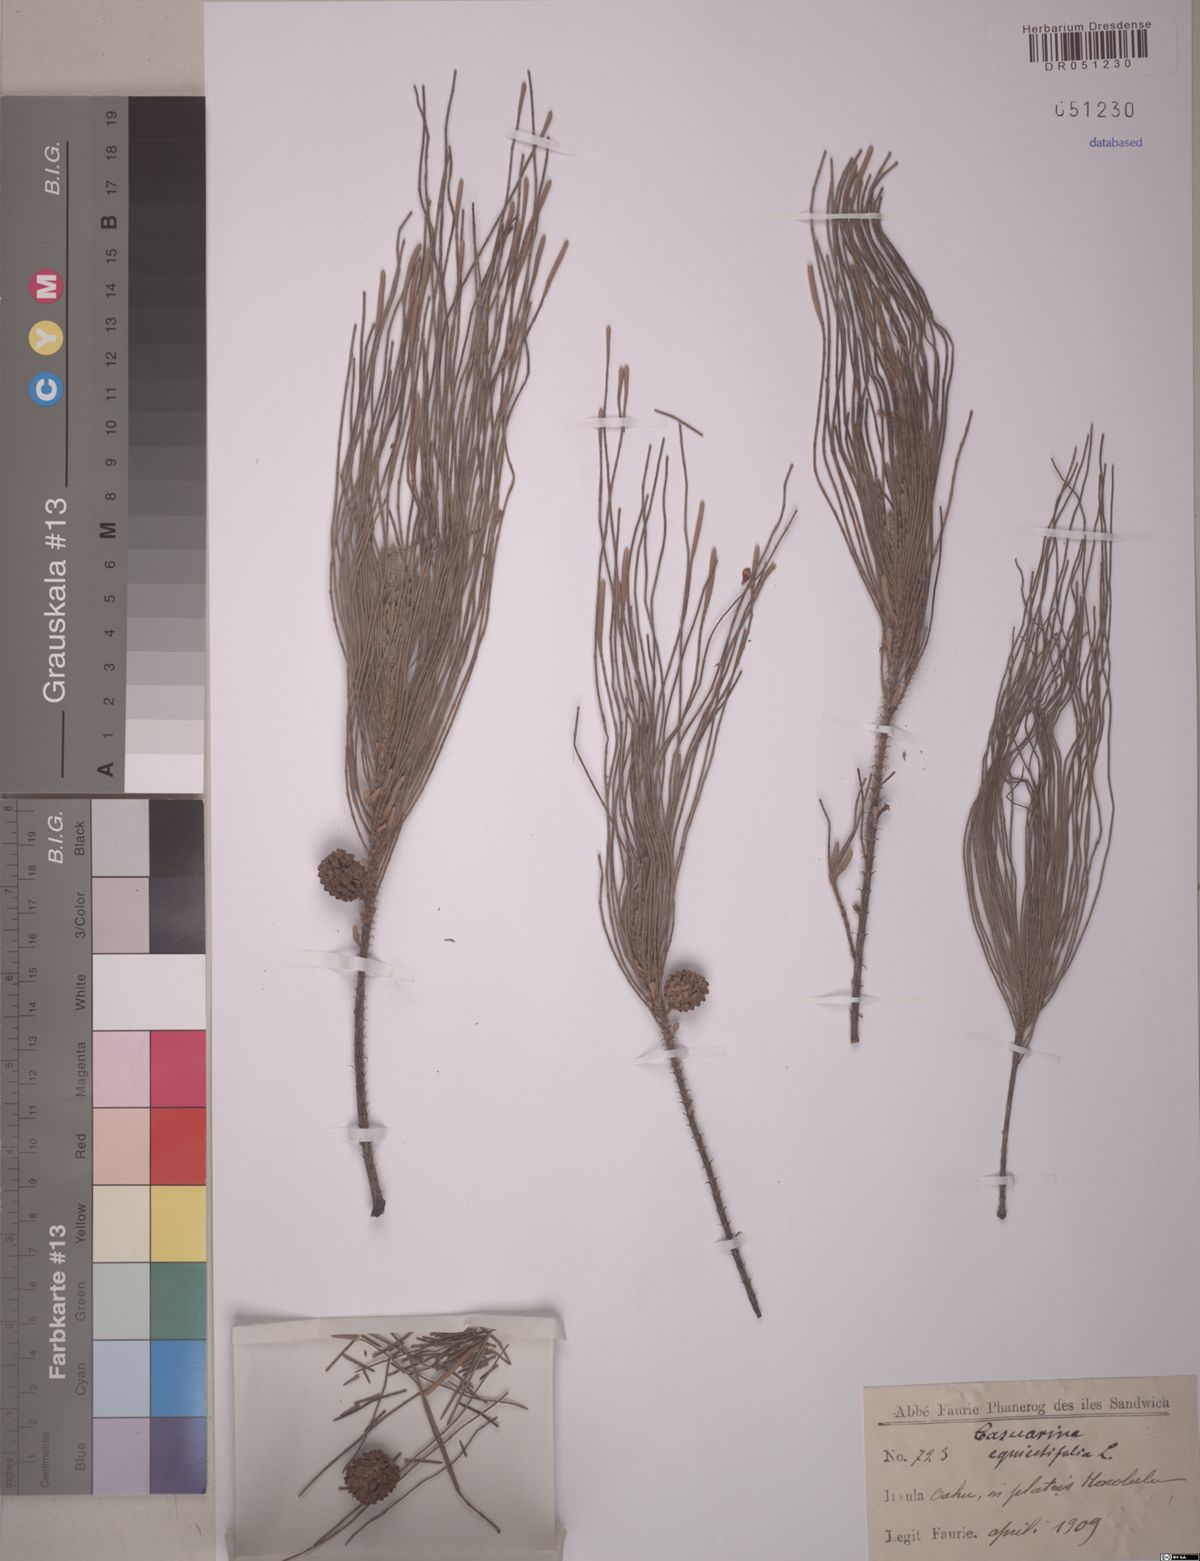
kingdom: Plantae
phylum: Tracheophyta
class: Magnoliopsida
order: Fagales
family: Casuarinaceae
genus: Casuarina
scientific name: Casuarina equisetifolia
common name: Beach sheoak
